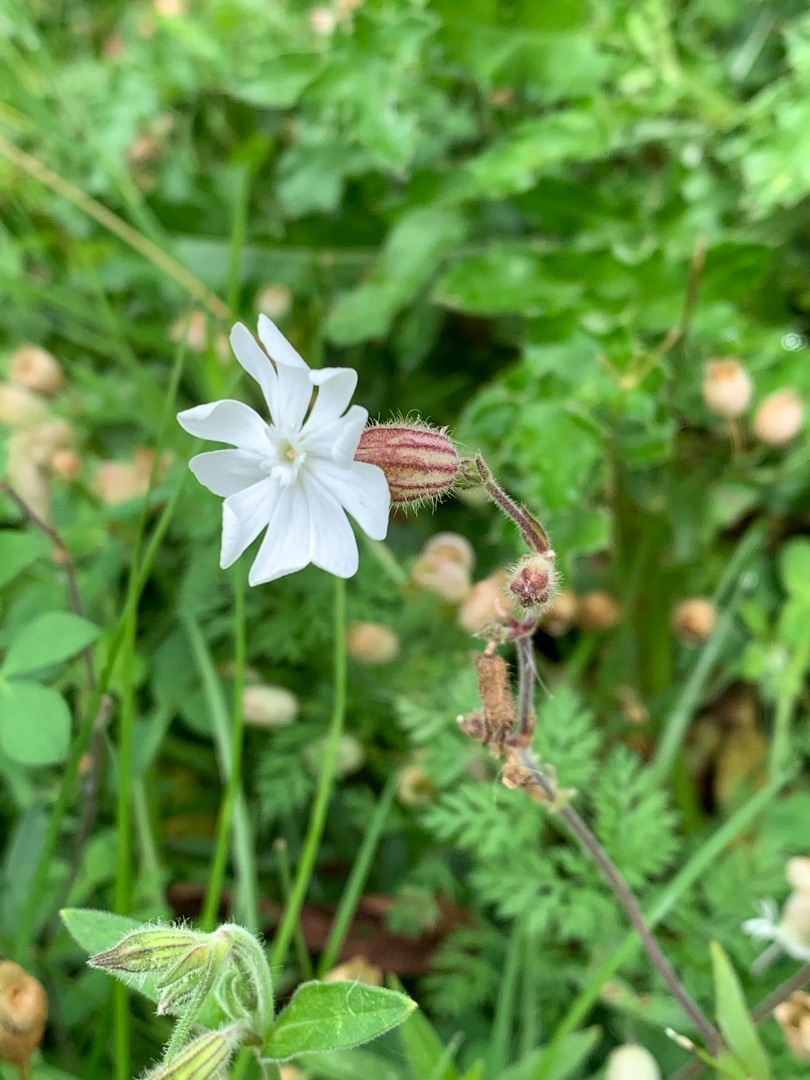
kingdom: Plantae
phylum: Tracheophyta
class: Magnoliopsida
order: Caryophyllales
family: Caryophyllaceae
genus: Silene
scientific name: Silene latifolia
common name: Aftenpragtstjerne
